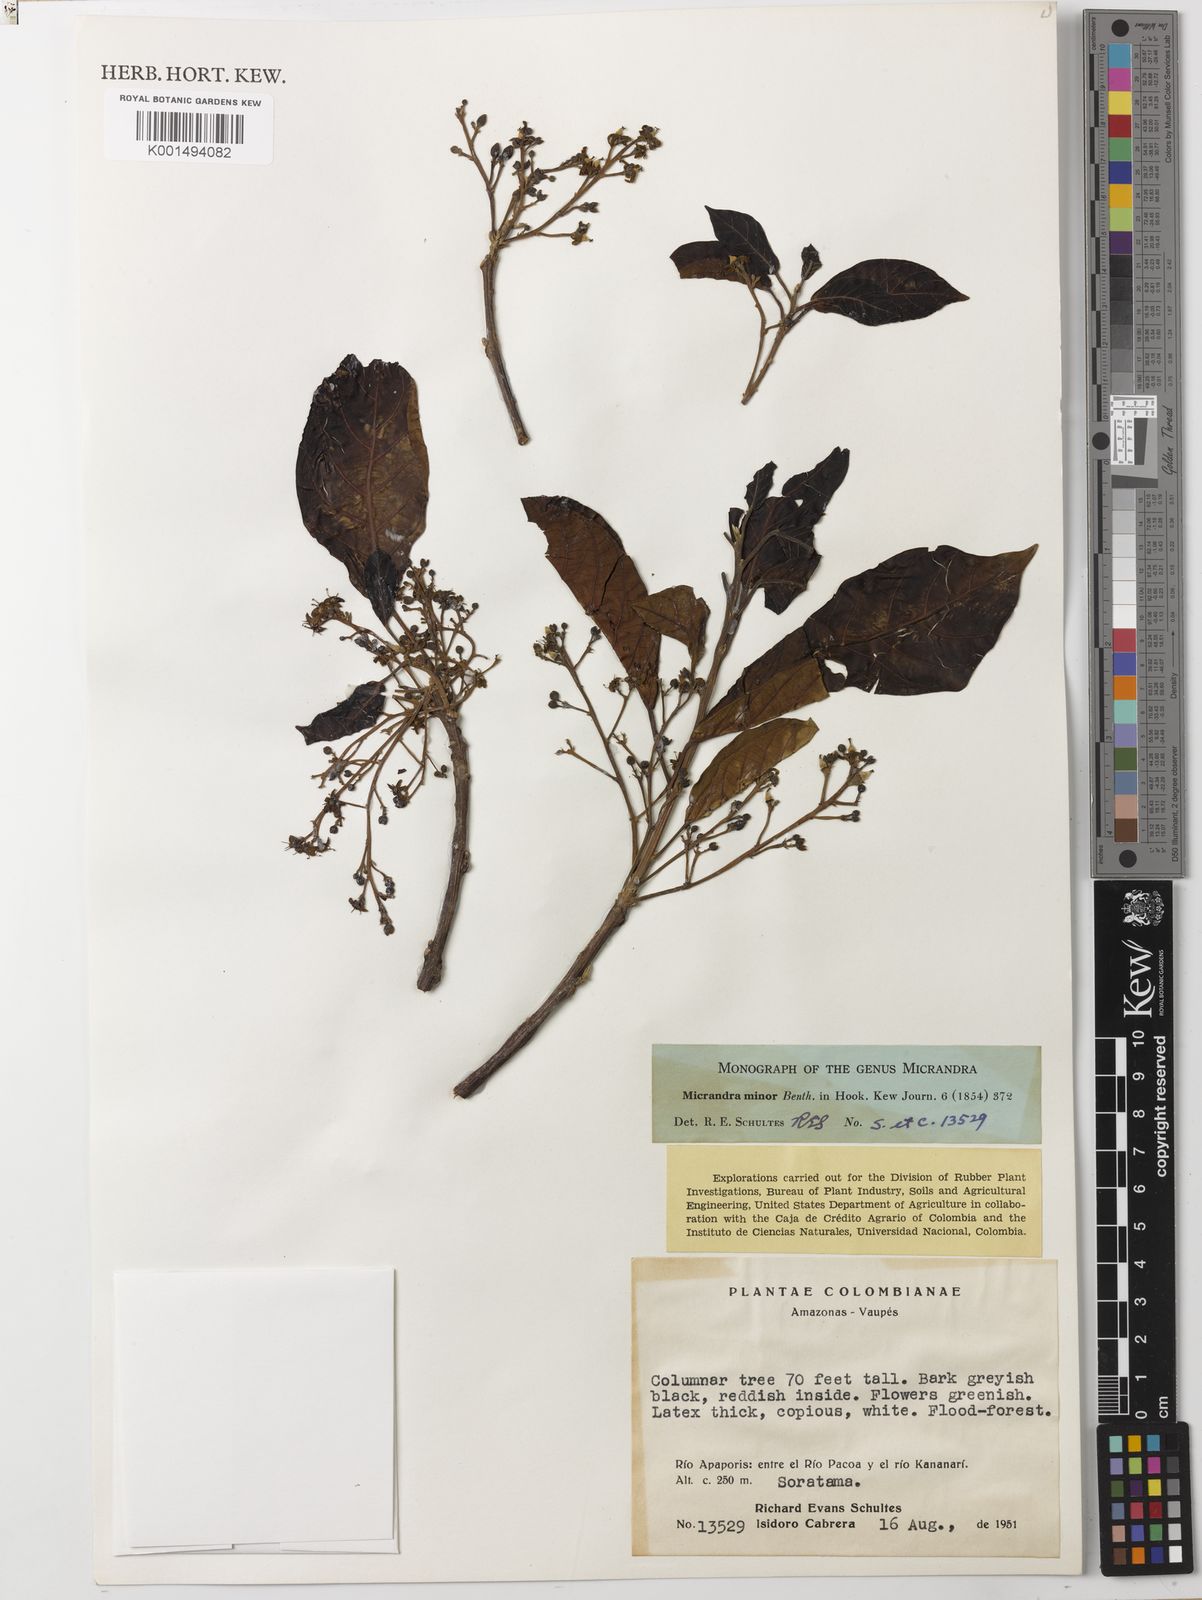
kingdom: Plantae
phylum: Tracheophyta
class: Magnoliopsida
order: Malpighiales
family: Euphorbiaceae
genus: Micrandra
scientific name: Micrandra minor
